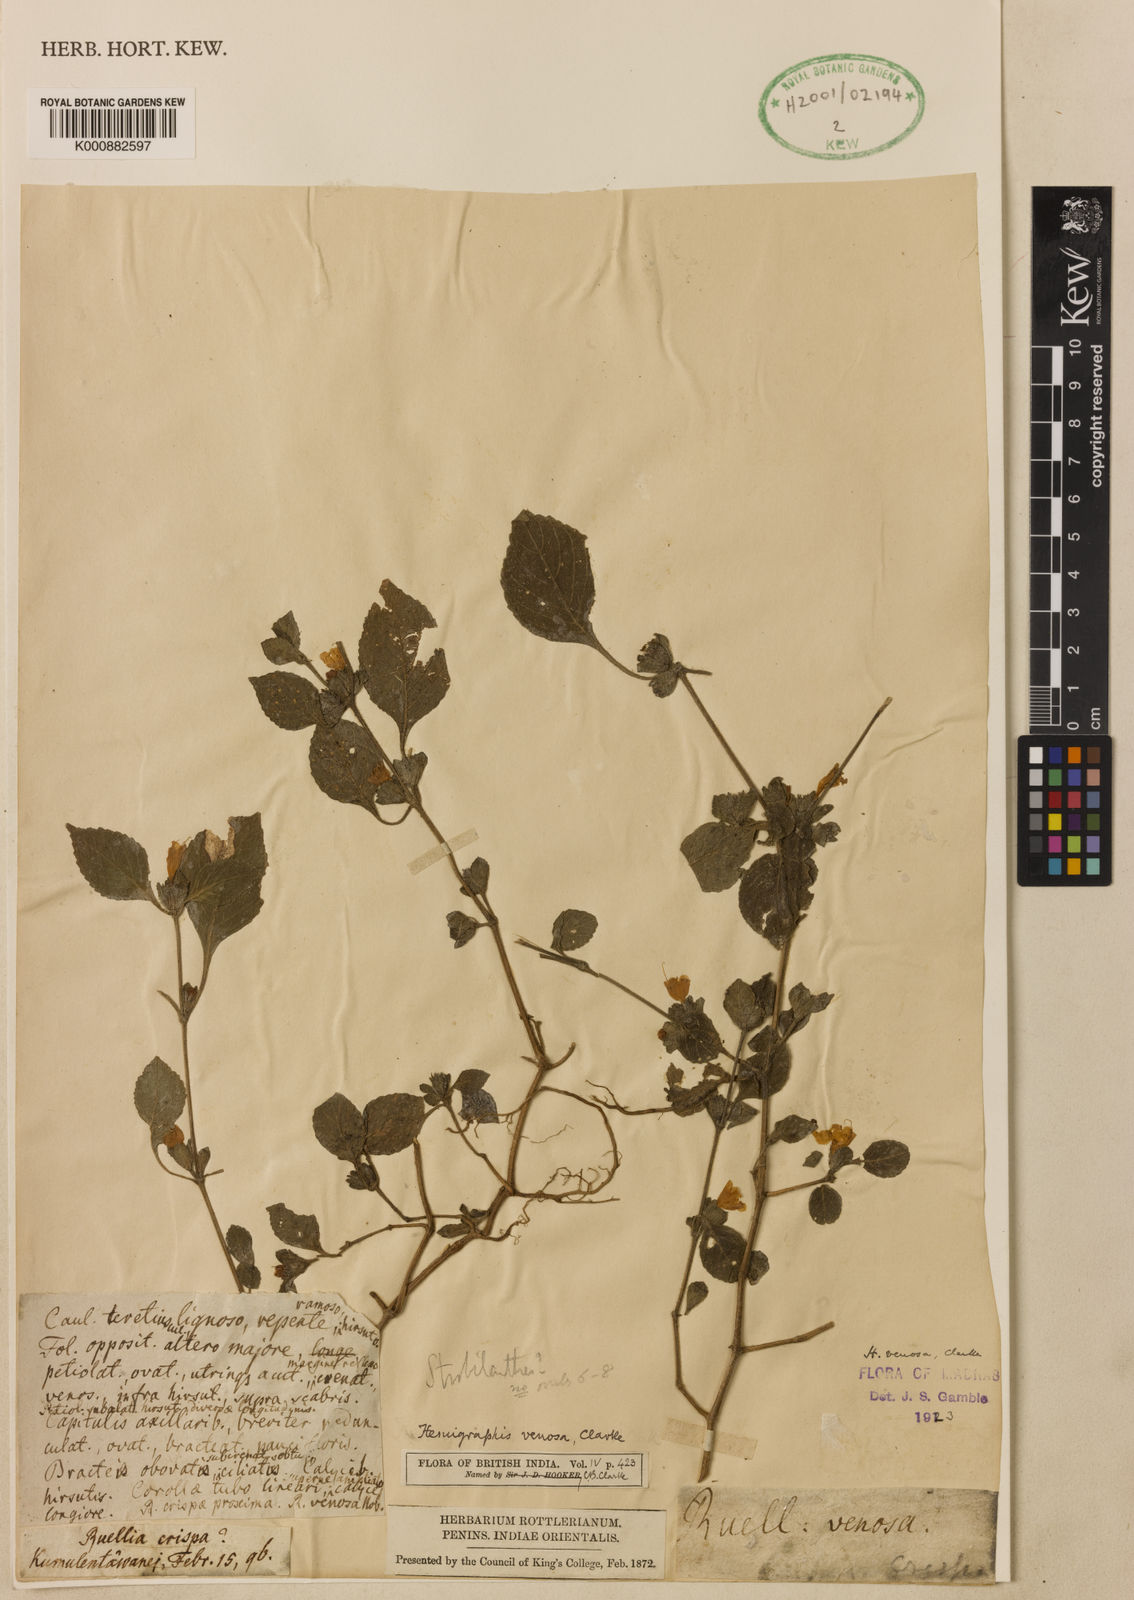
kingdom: Plantae
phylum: Tracheophyta
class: Magnoliopsida
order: Lamiales
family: Acanthaceae
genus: Strobilanthes
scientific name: Strobilanthes venosa
